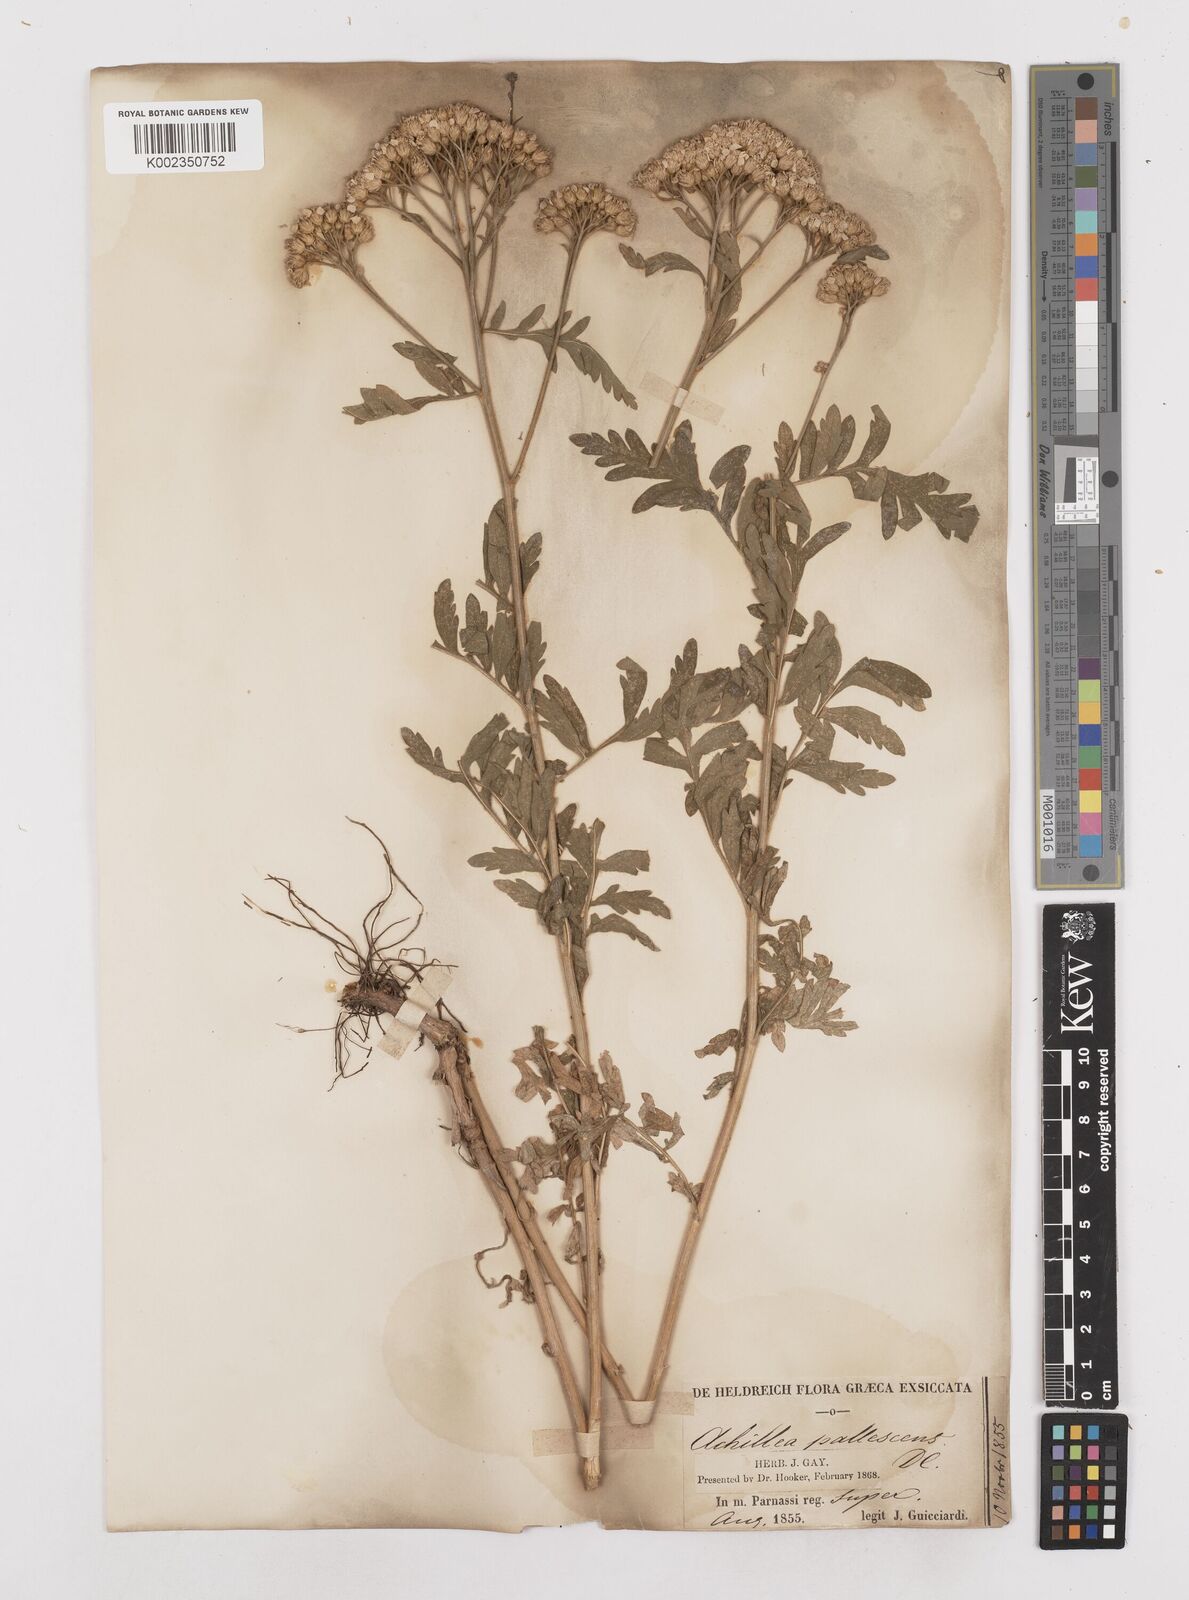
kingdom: Plantae
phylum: Tracheophyta
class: Magnoliopsida
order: Asterales
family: Asteraceae
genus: Achillea
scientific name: Achillea grandifolia
